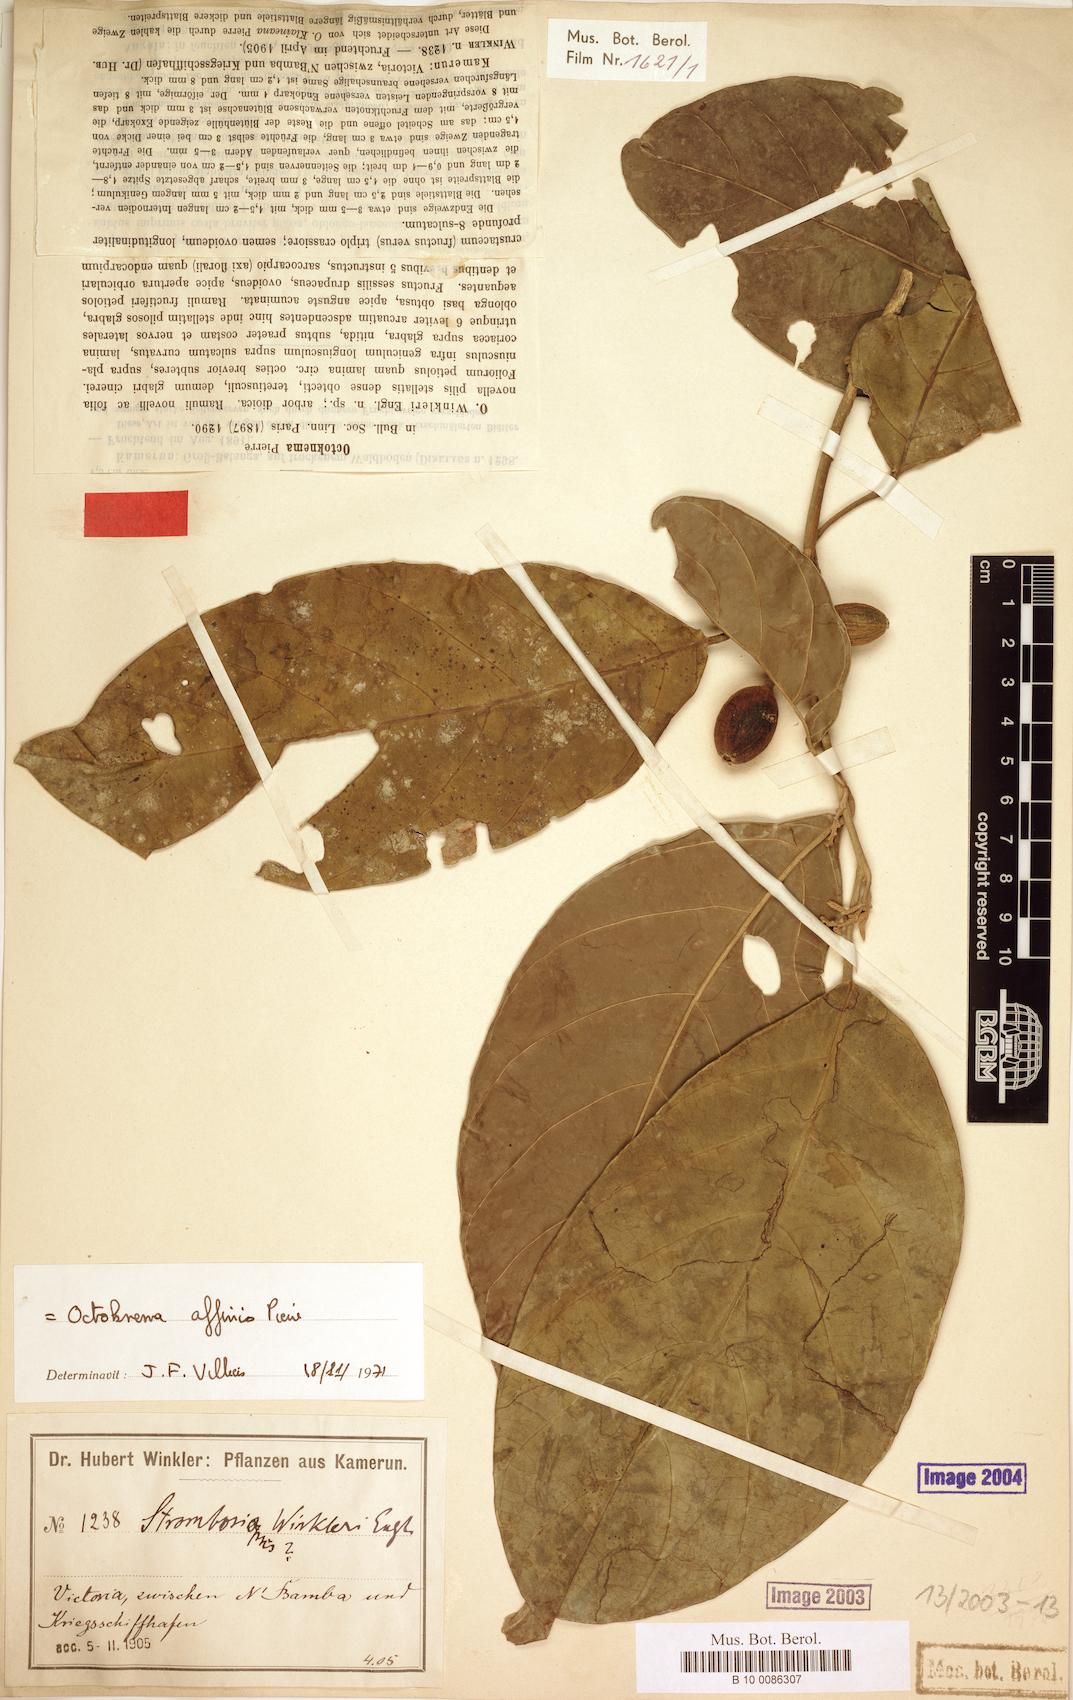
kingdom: Plantae
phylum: Tracheophyta
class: Magnoliopsida
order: Santalales
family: Octoknemaceae
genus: Octoknema
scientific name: Octoknema affinis
